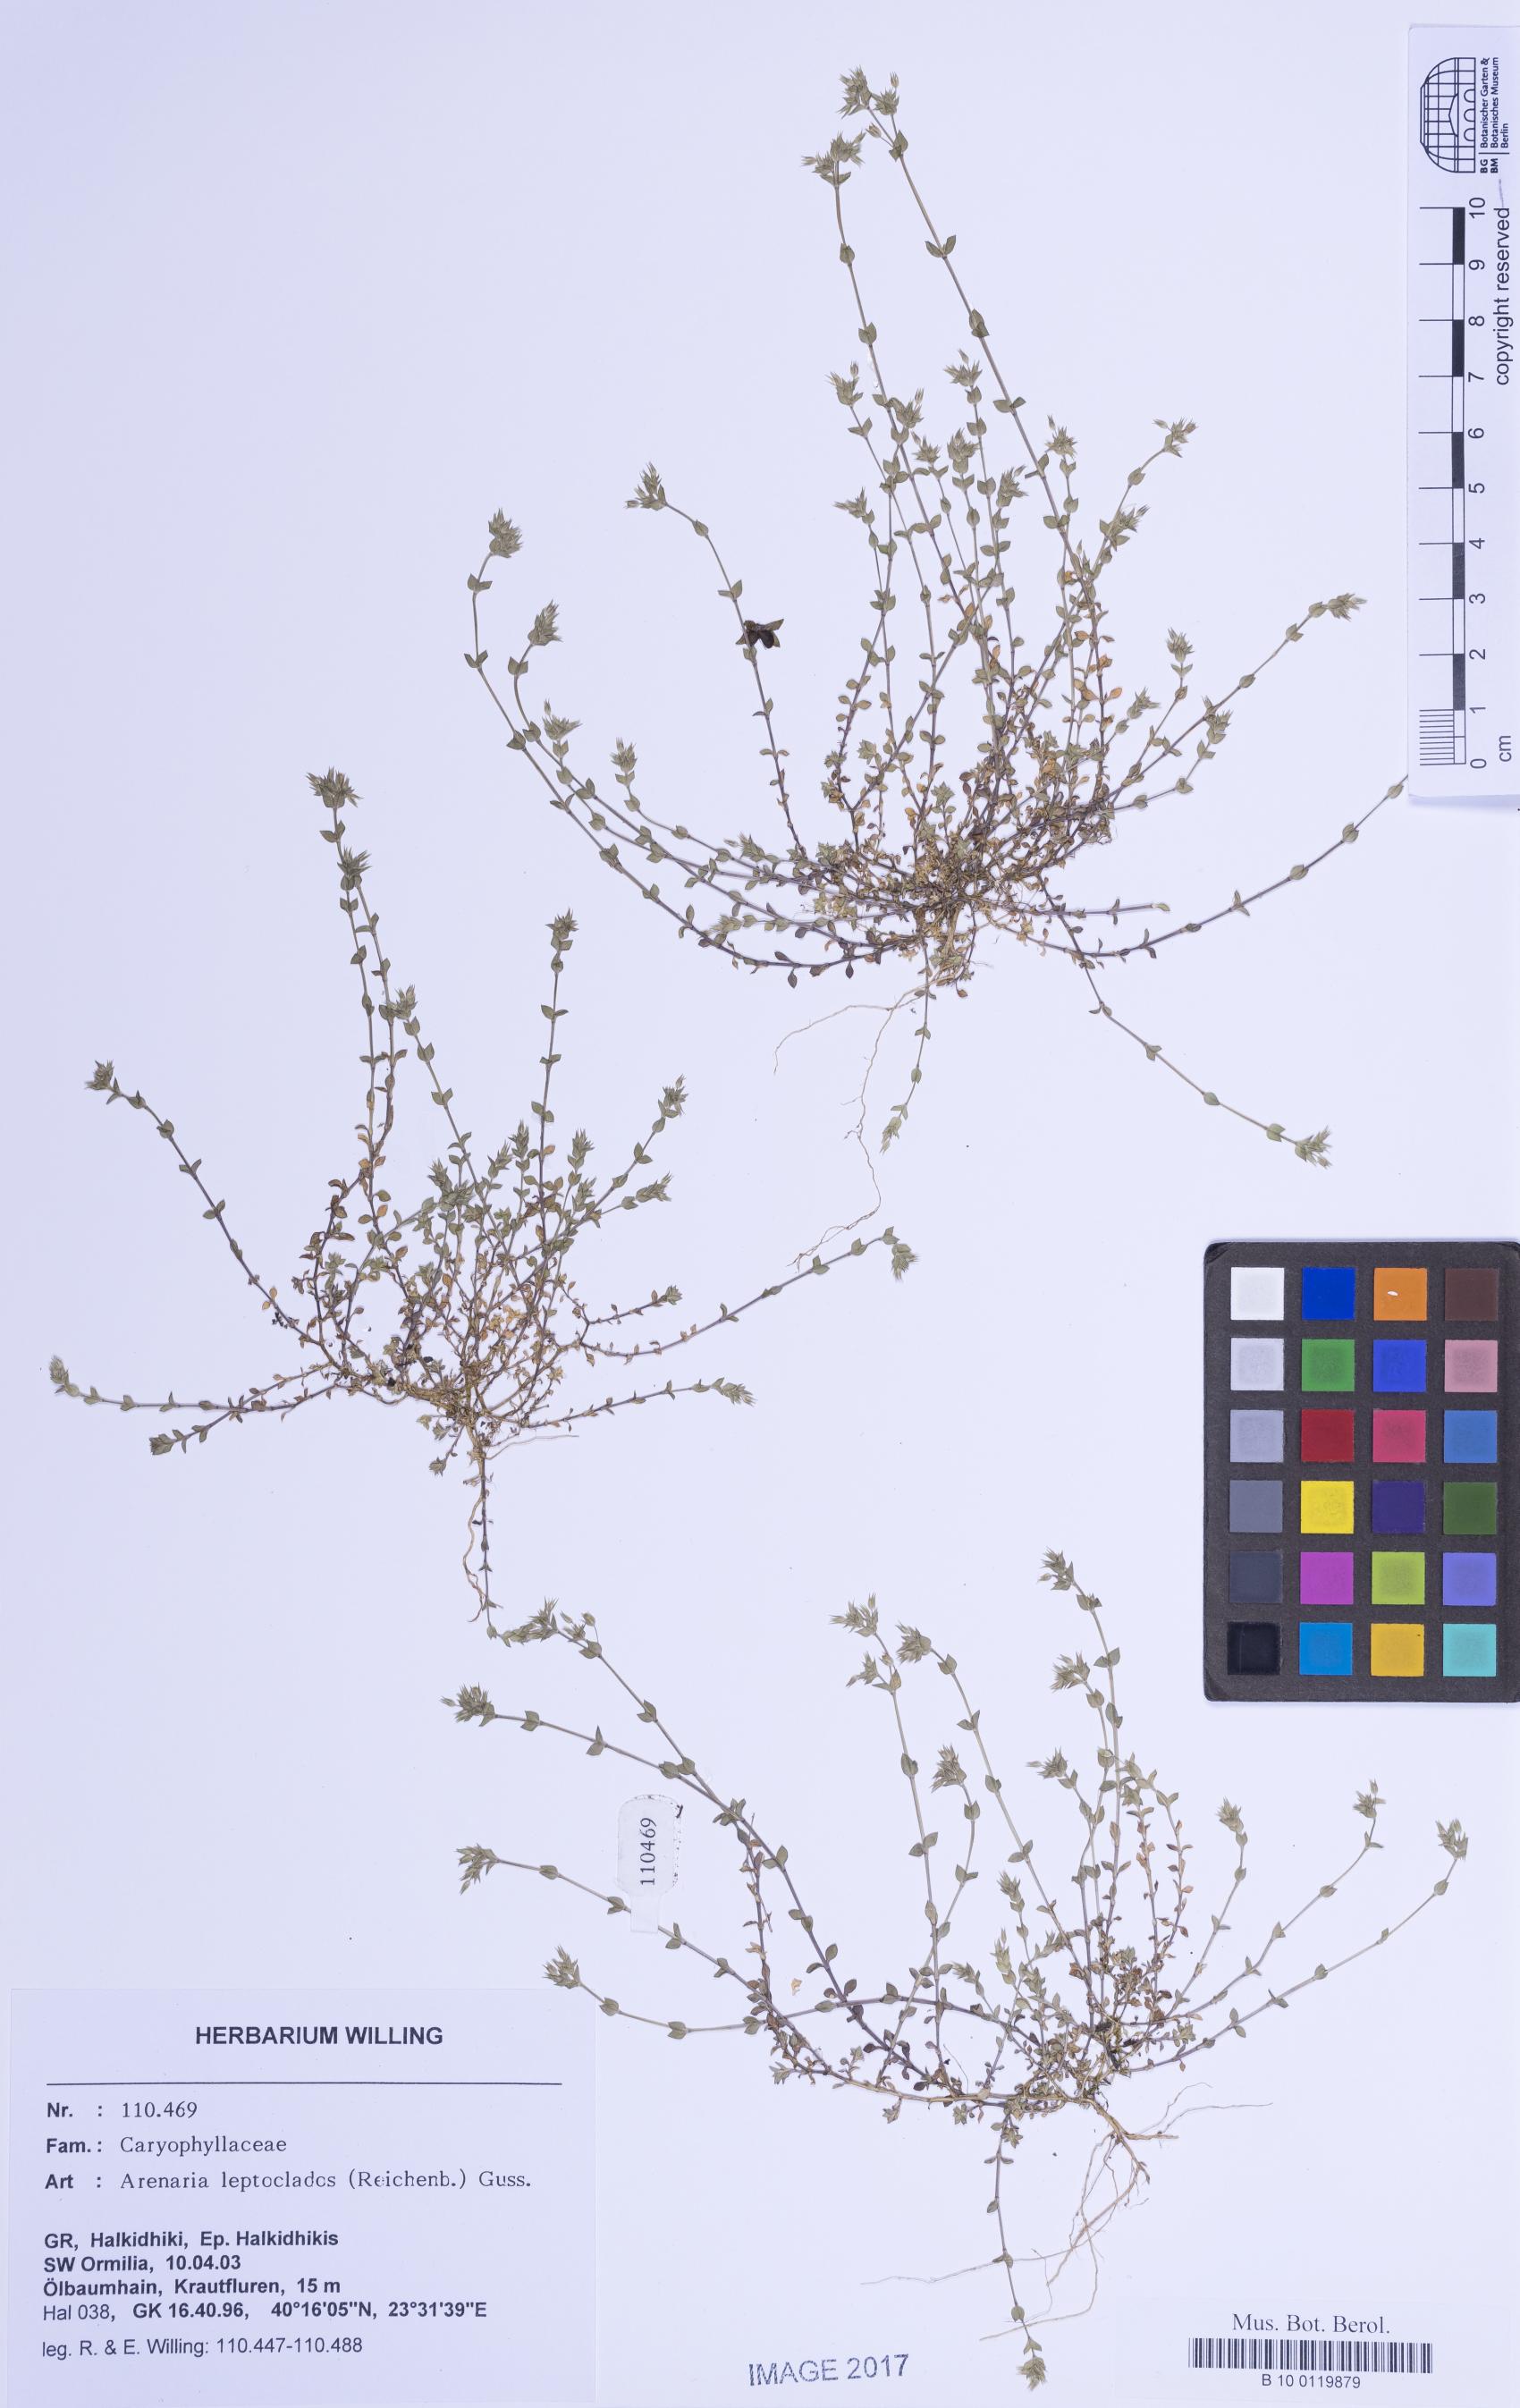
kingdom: Plantae
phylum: Tracheophyta
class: Magnoliopsida
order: Caryophyllales
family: Caryophyllaceae
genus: Arenaria
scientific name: Arenaria leptoclados
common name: Thyme-leaved sandwort
